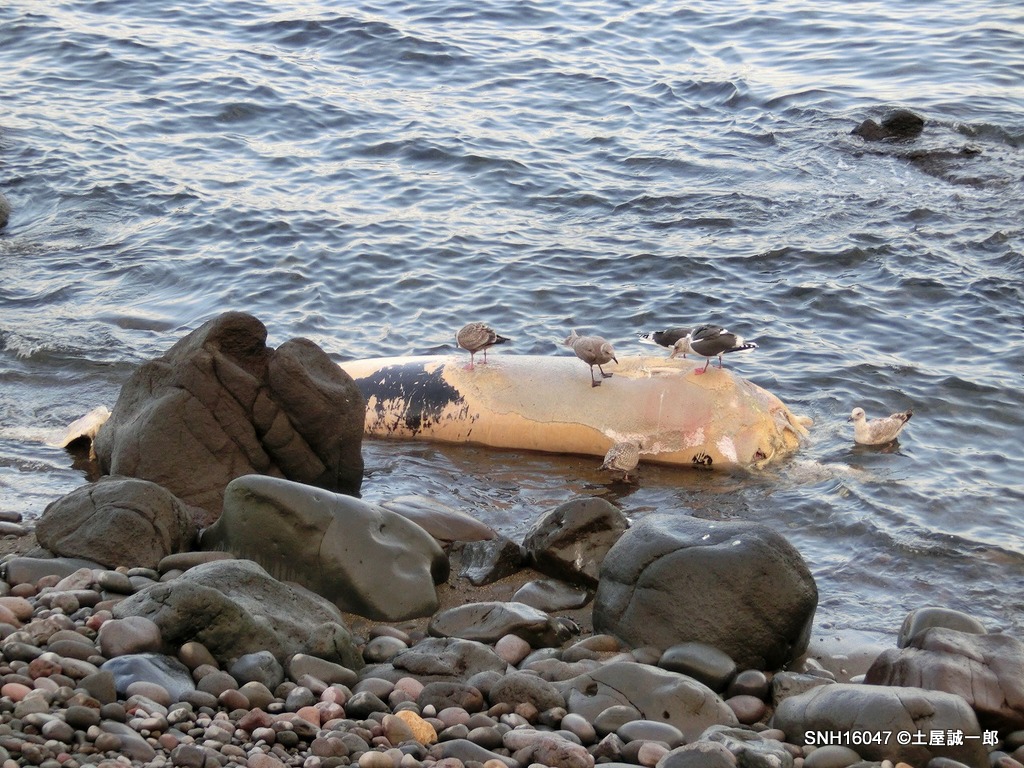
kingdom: Animalia
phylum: Chordata
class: Mammalia
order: Cetacea
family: Balaenopteridae
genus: Balaenoptera
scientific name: Balaenoptera acutorostrata
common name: Minke whale
